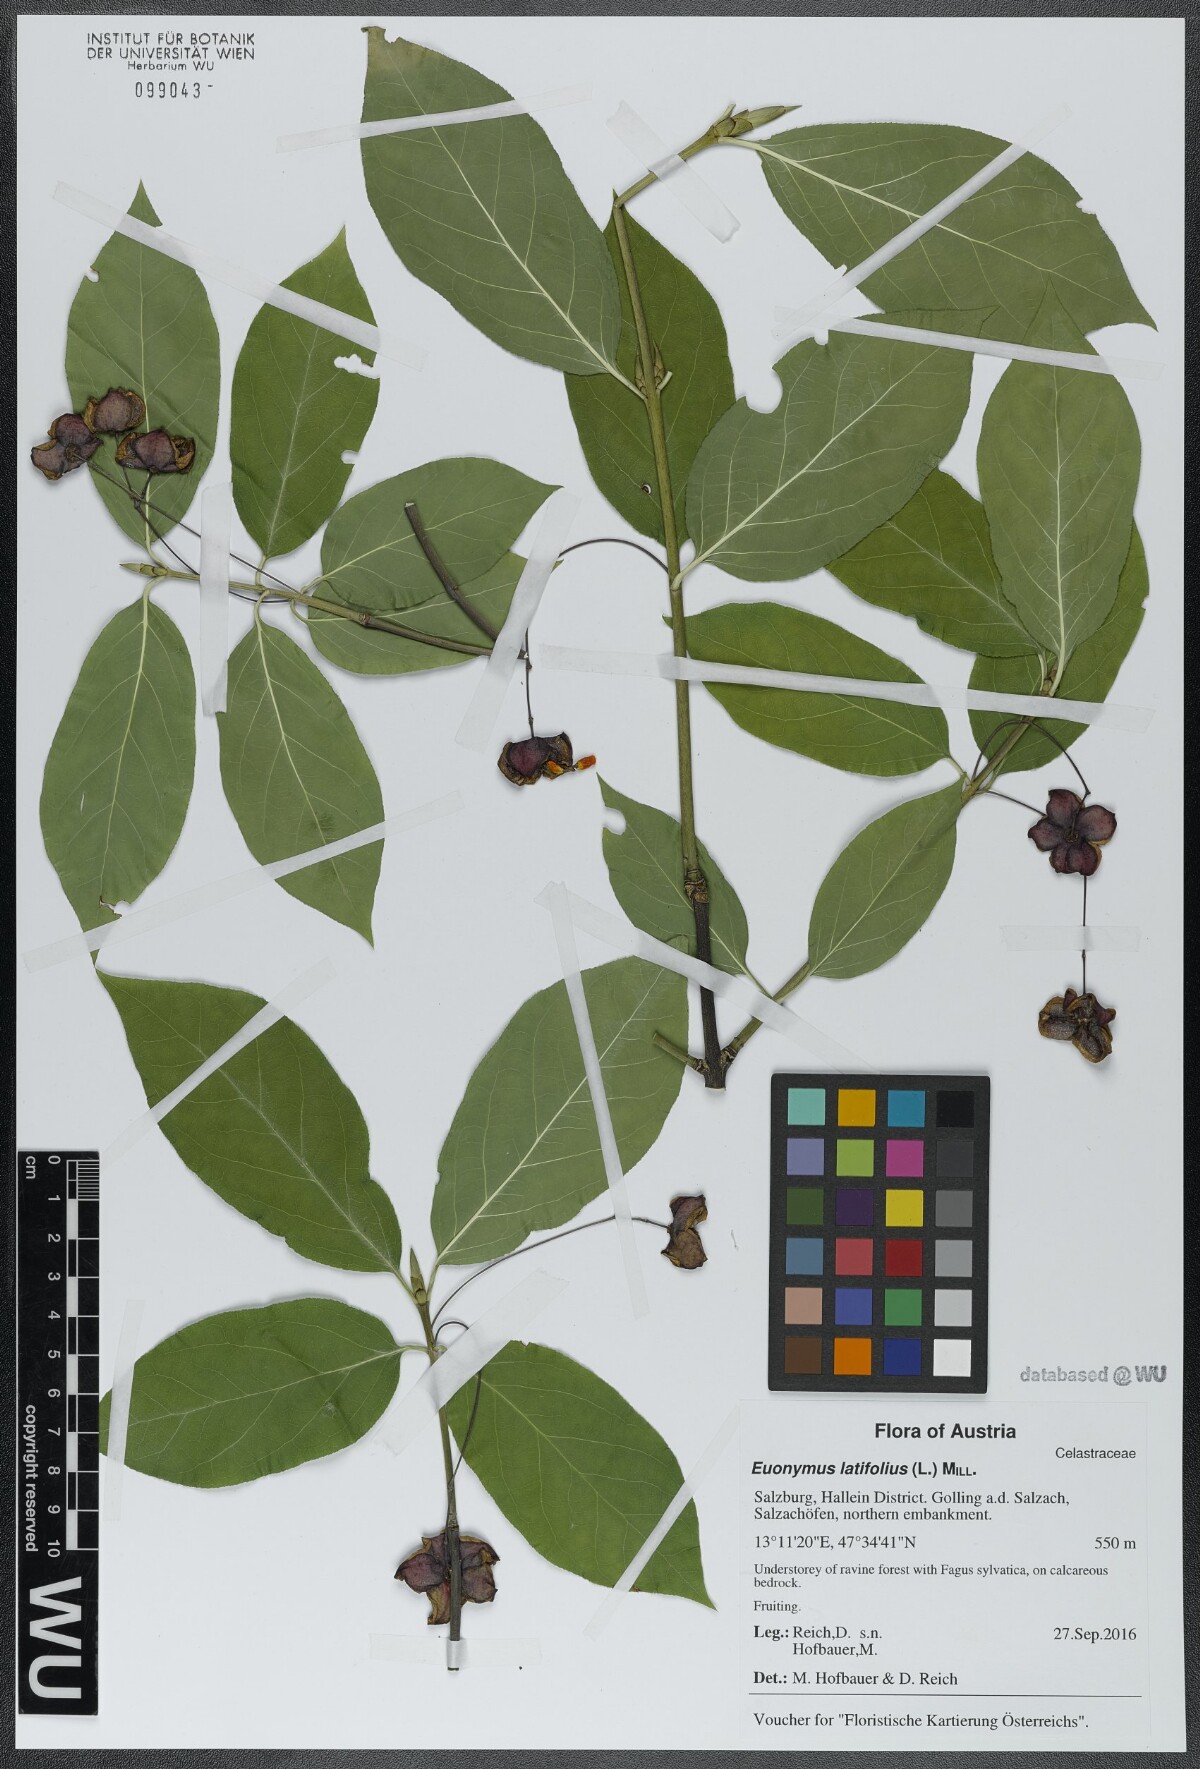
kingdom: Plantae
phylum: Tracheophyta
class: Magnoliopsida
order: Celastrales
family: Celastraceae
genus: Euonymus
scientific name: Euonymus latifolius
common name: Large-leaved spindle
